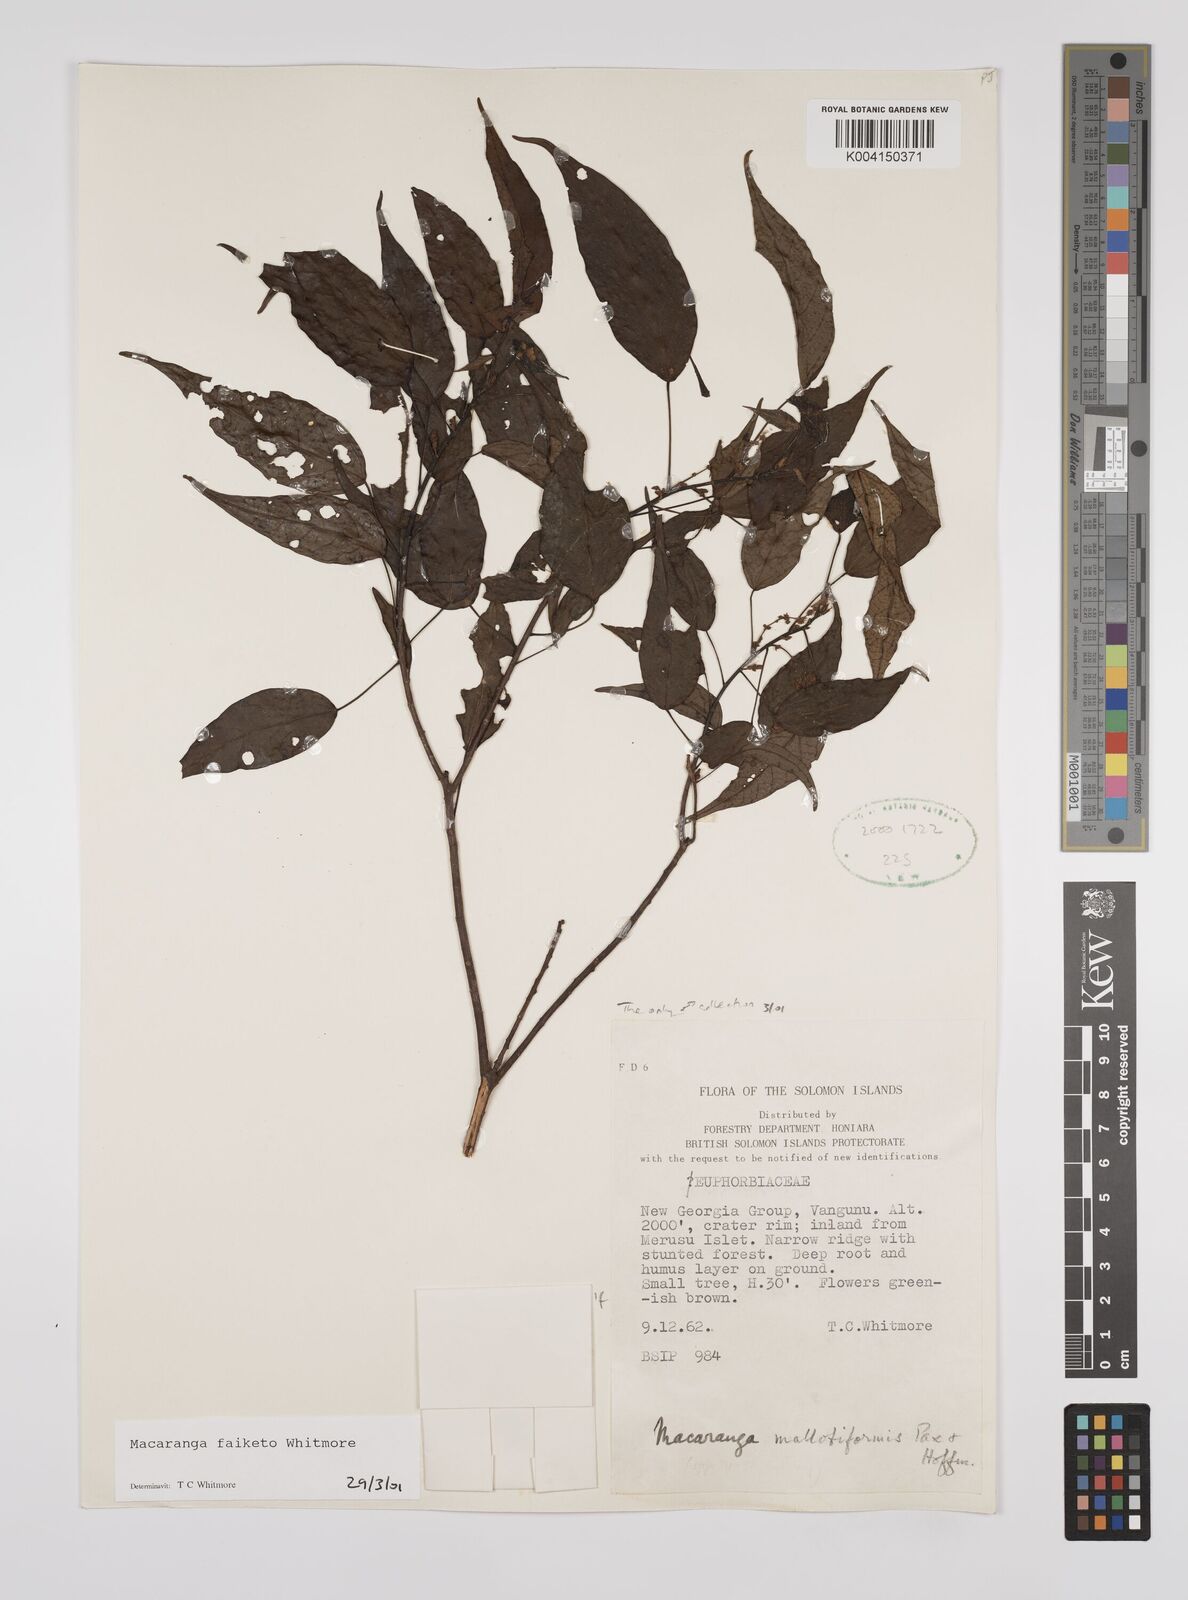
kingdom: Plantae
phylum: Tracheophyta
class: Magnoliopsida
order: Malpighiales
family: Euphorbiaceae
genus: Macaranga
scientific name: Macaranga faiketo
